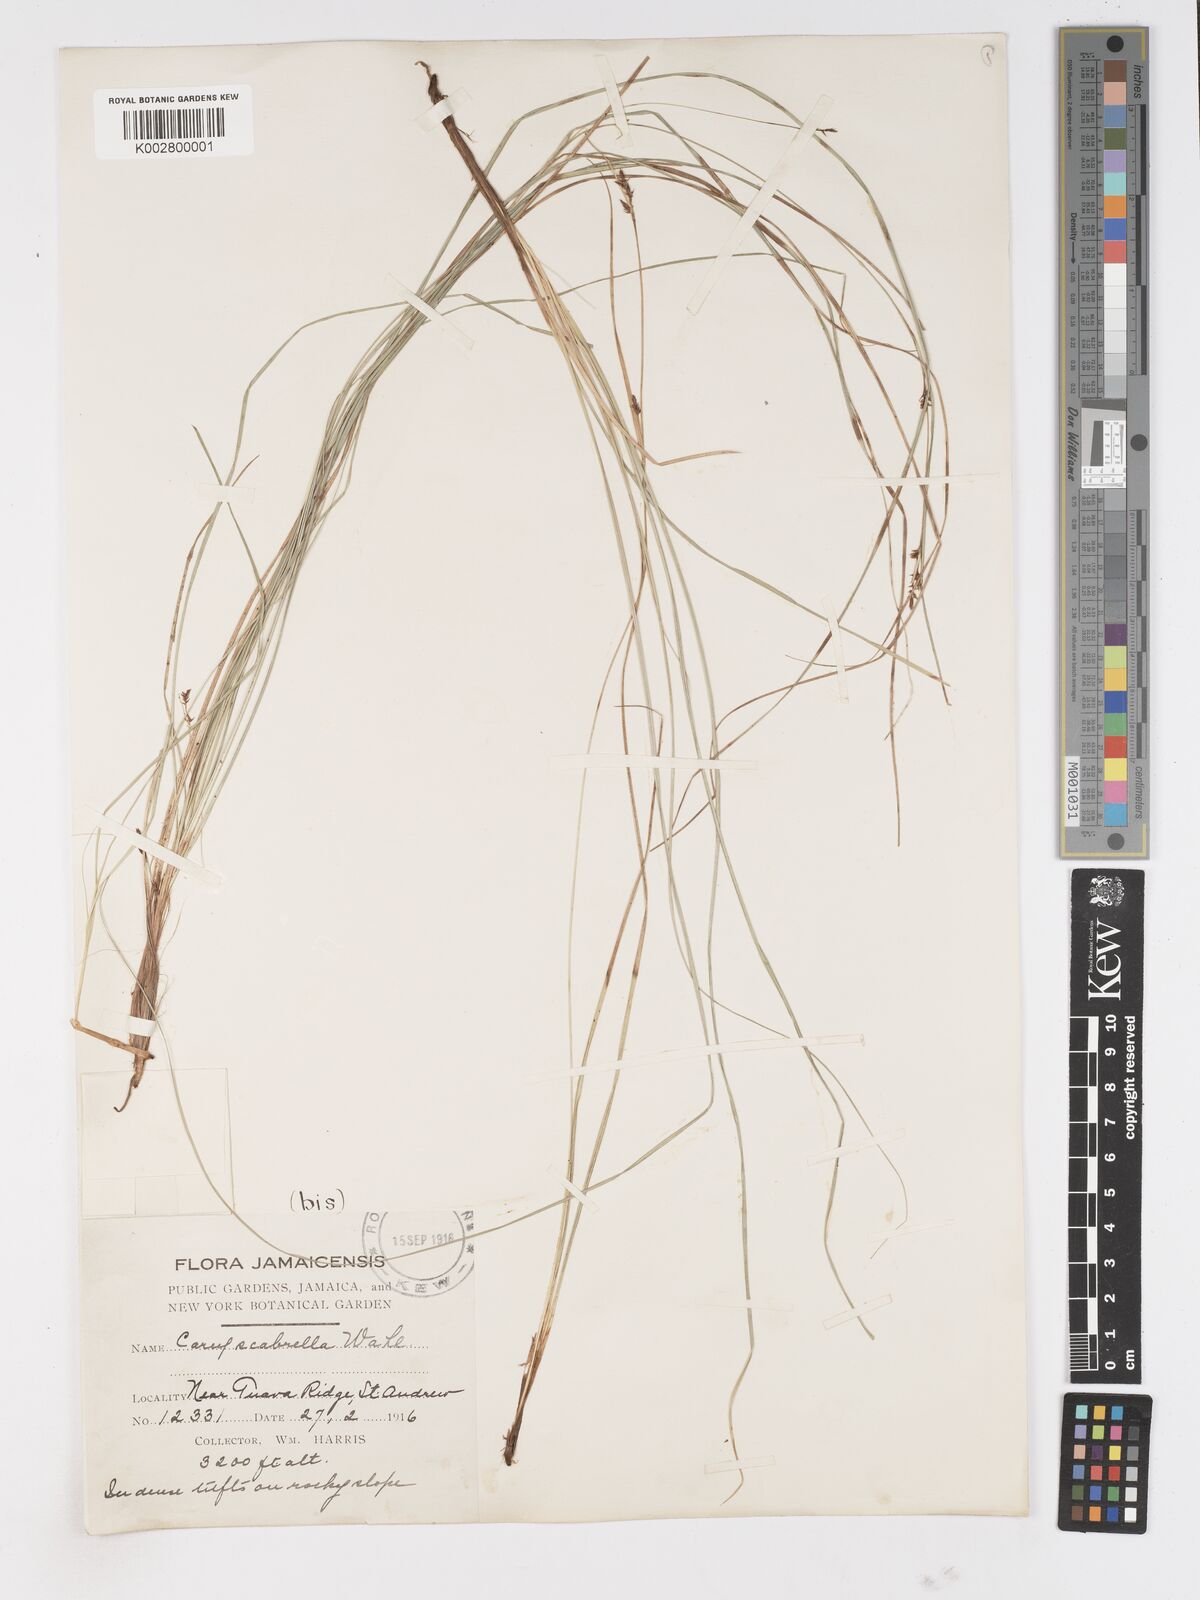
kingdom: Plantae
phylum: Tracheophyta
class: Liliopsida
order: Poales
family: Cyperaceae
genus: Carex
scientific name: Carex
